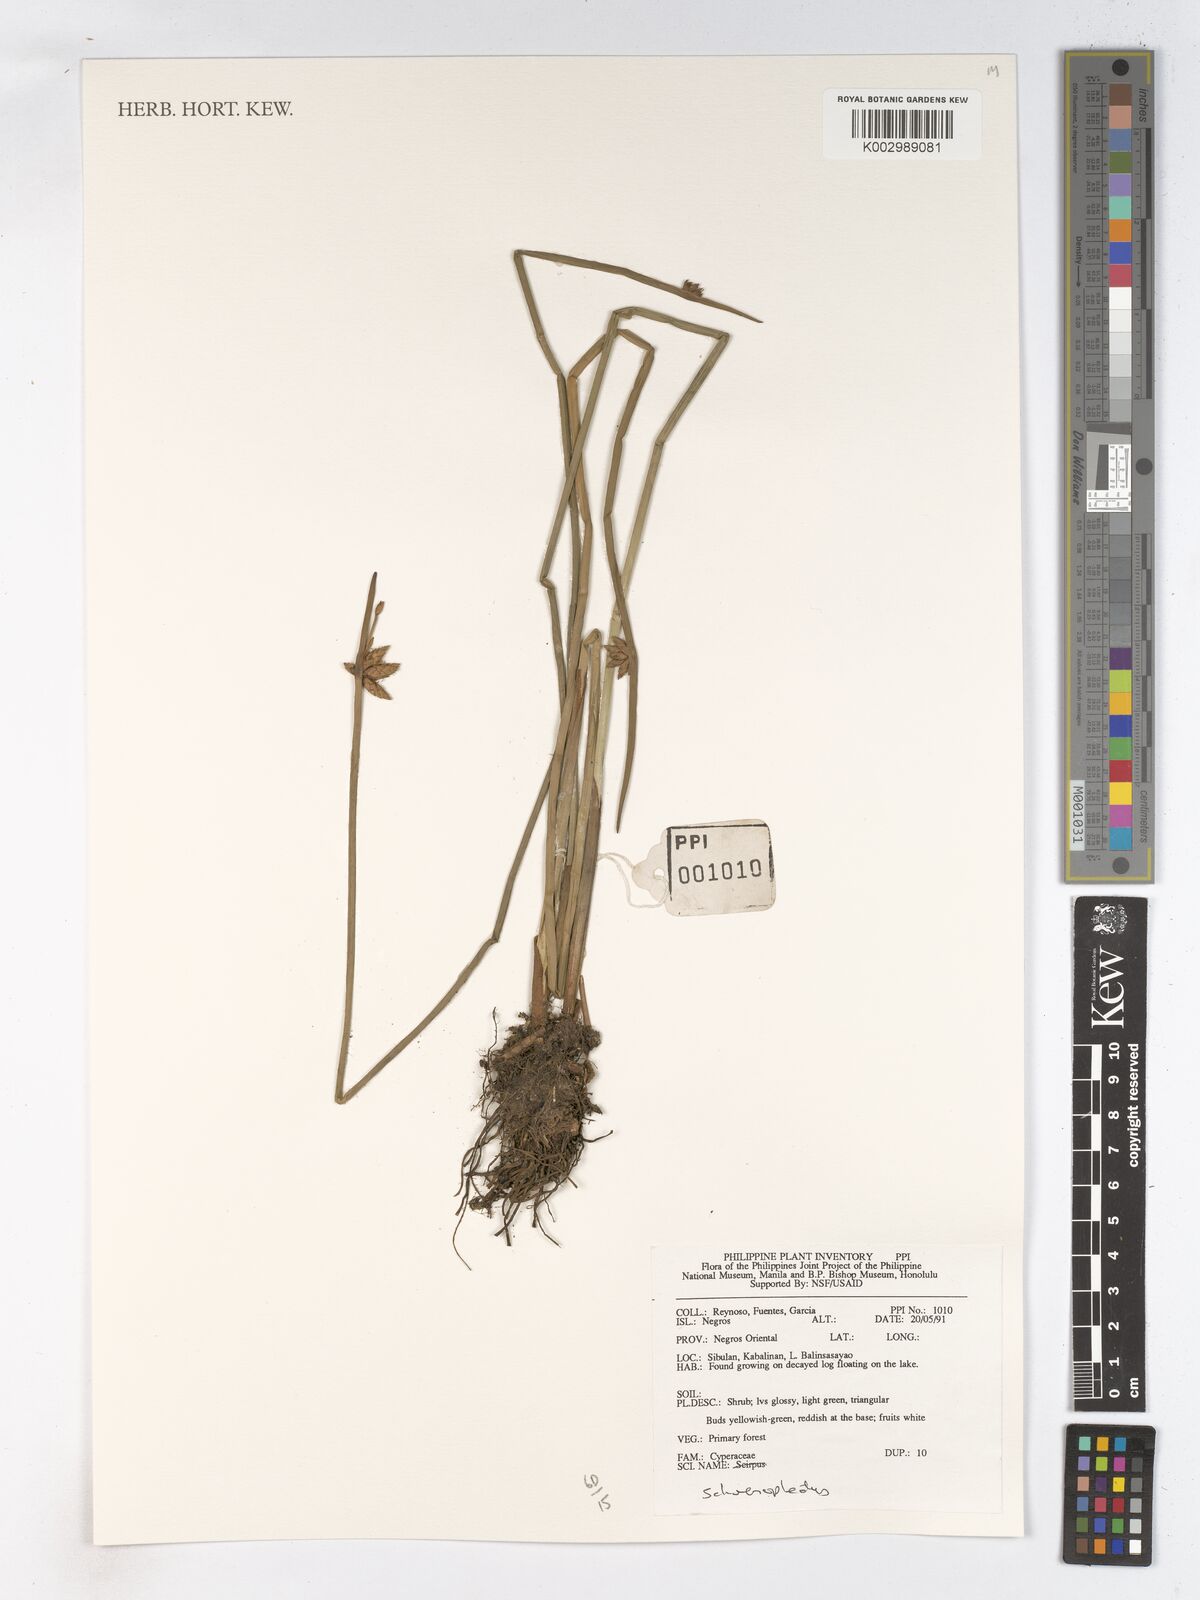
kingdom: Plantae
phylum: Tracheophyta
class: Liliopsida
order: Poales
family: Cyperaceae
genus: Schoenoplectus
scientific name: Schoenoplectus
